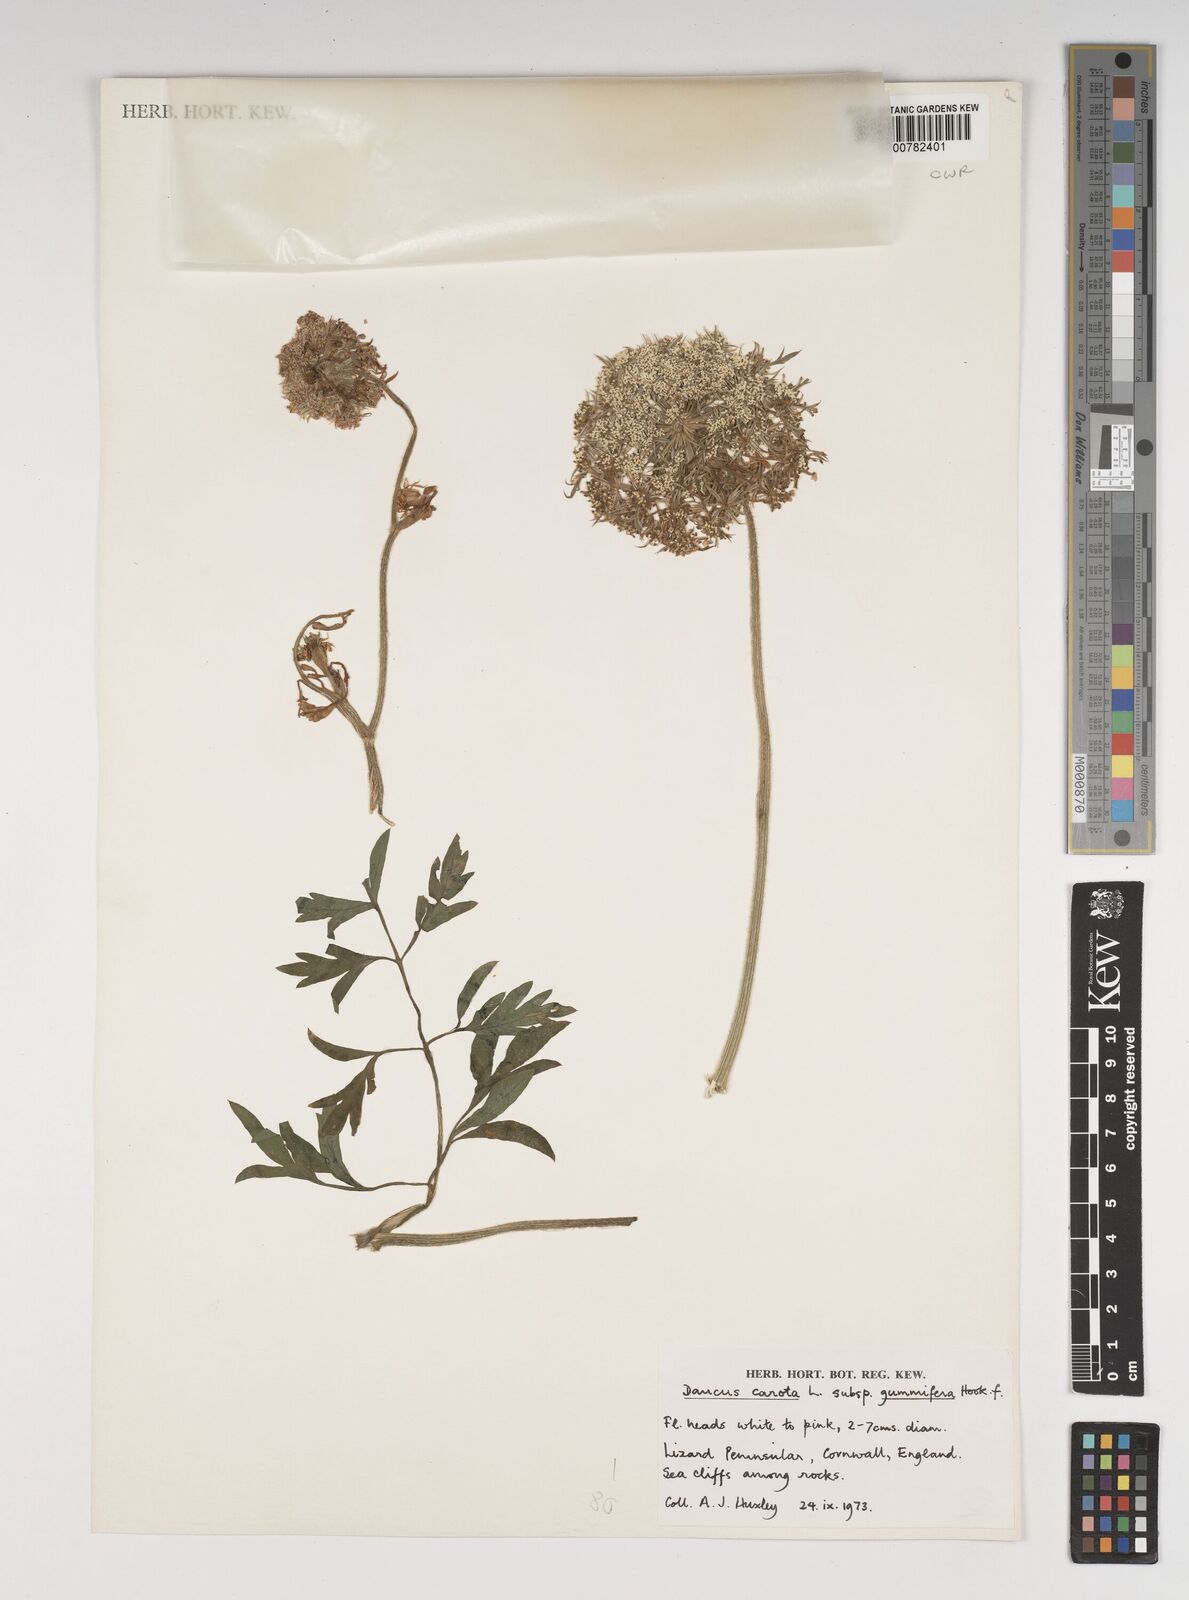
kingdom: Plantae
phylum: Tracheophyta
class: Magnoliopsida
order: Apiales
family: Apiaceae
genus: Daucus
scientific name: Daucus carota
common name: Wild carrot
